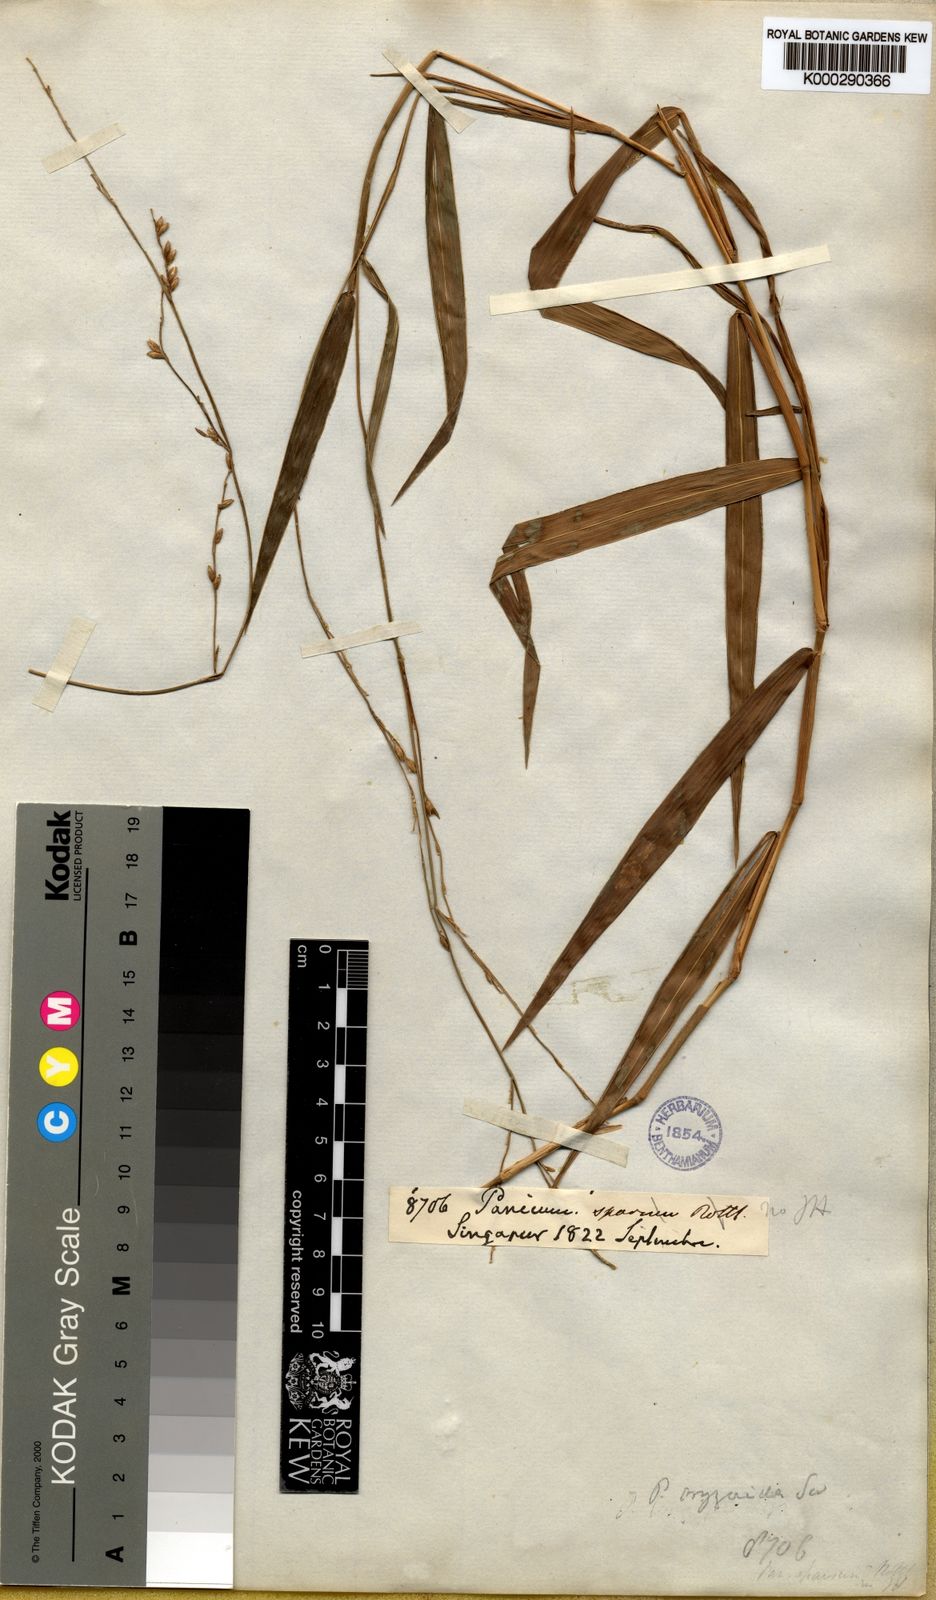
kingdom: Plantae
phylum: Tracheophyta
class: Liliopsida
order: Poales
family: Poaceae
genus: Acroceras
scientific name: Acroceras tonkinense
